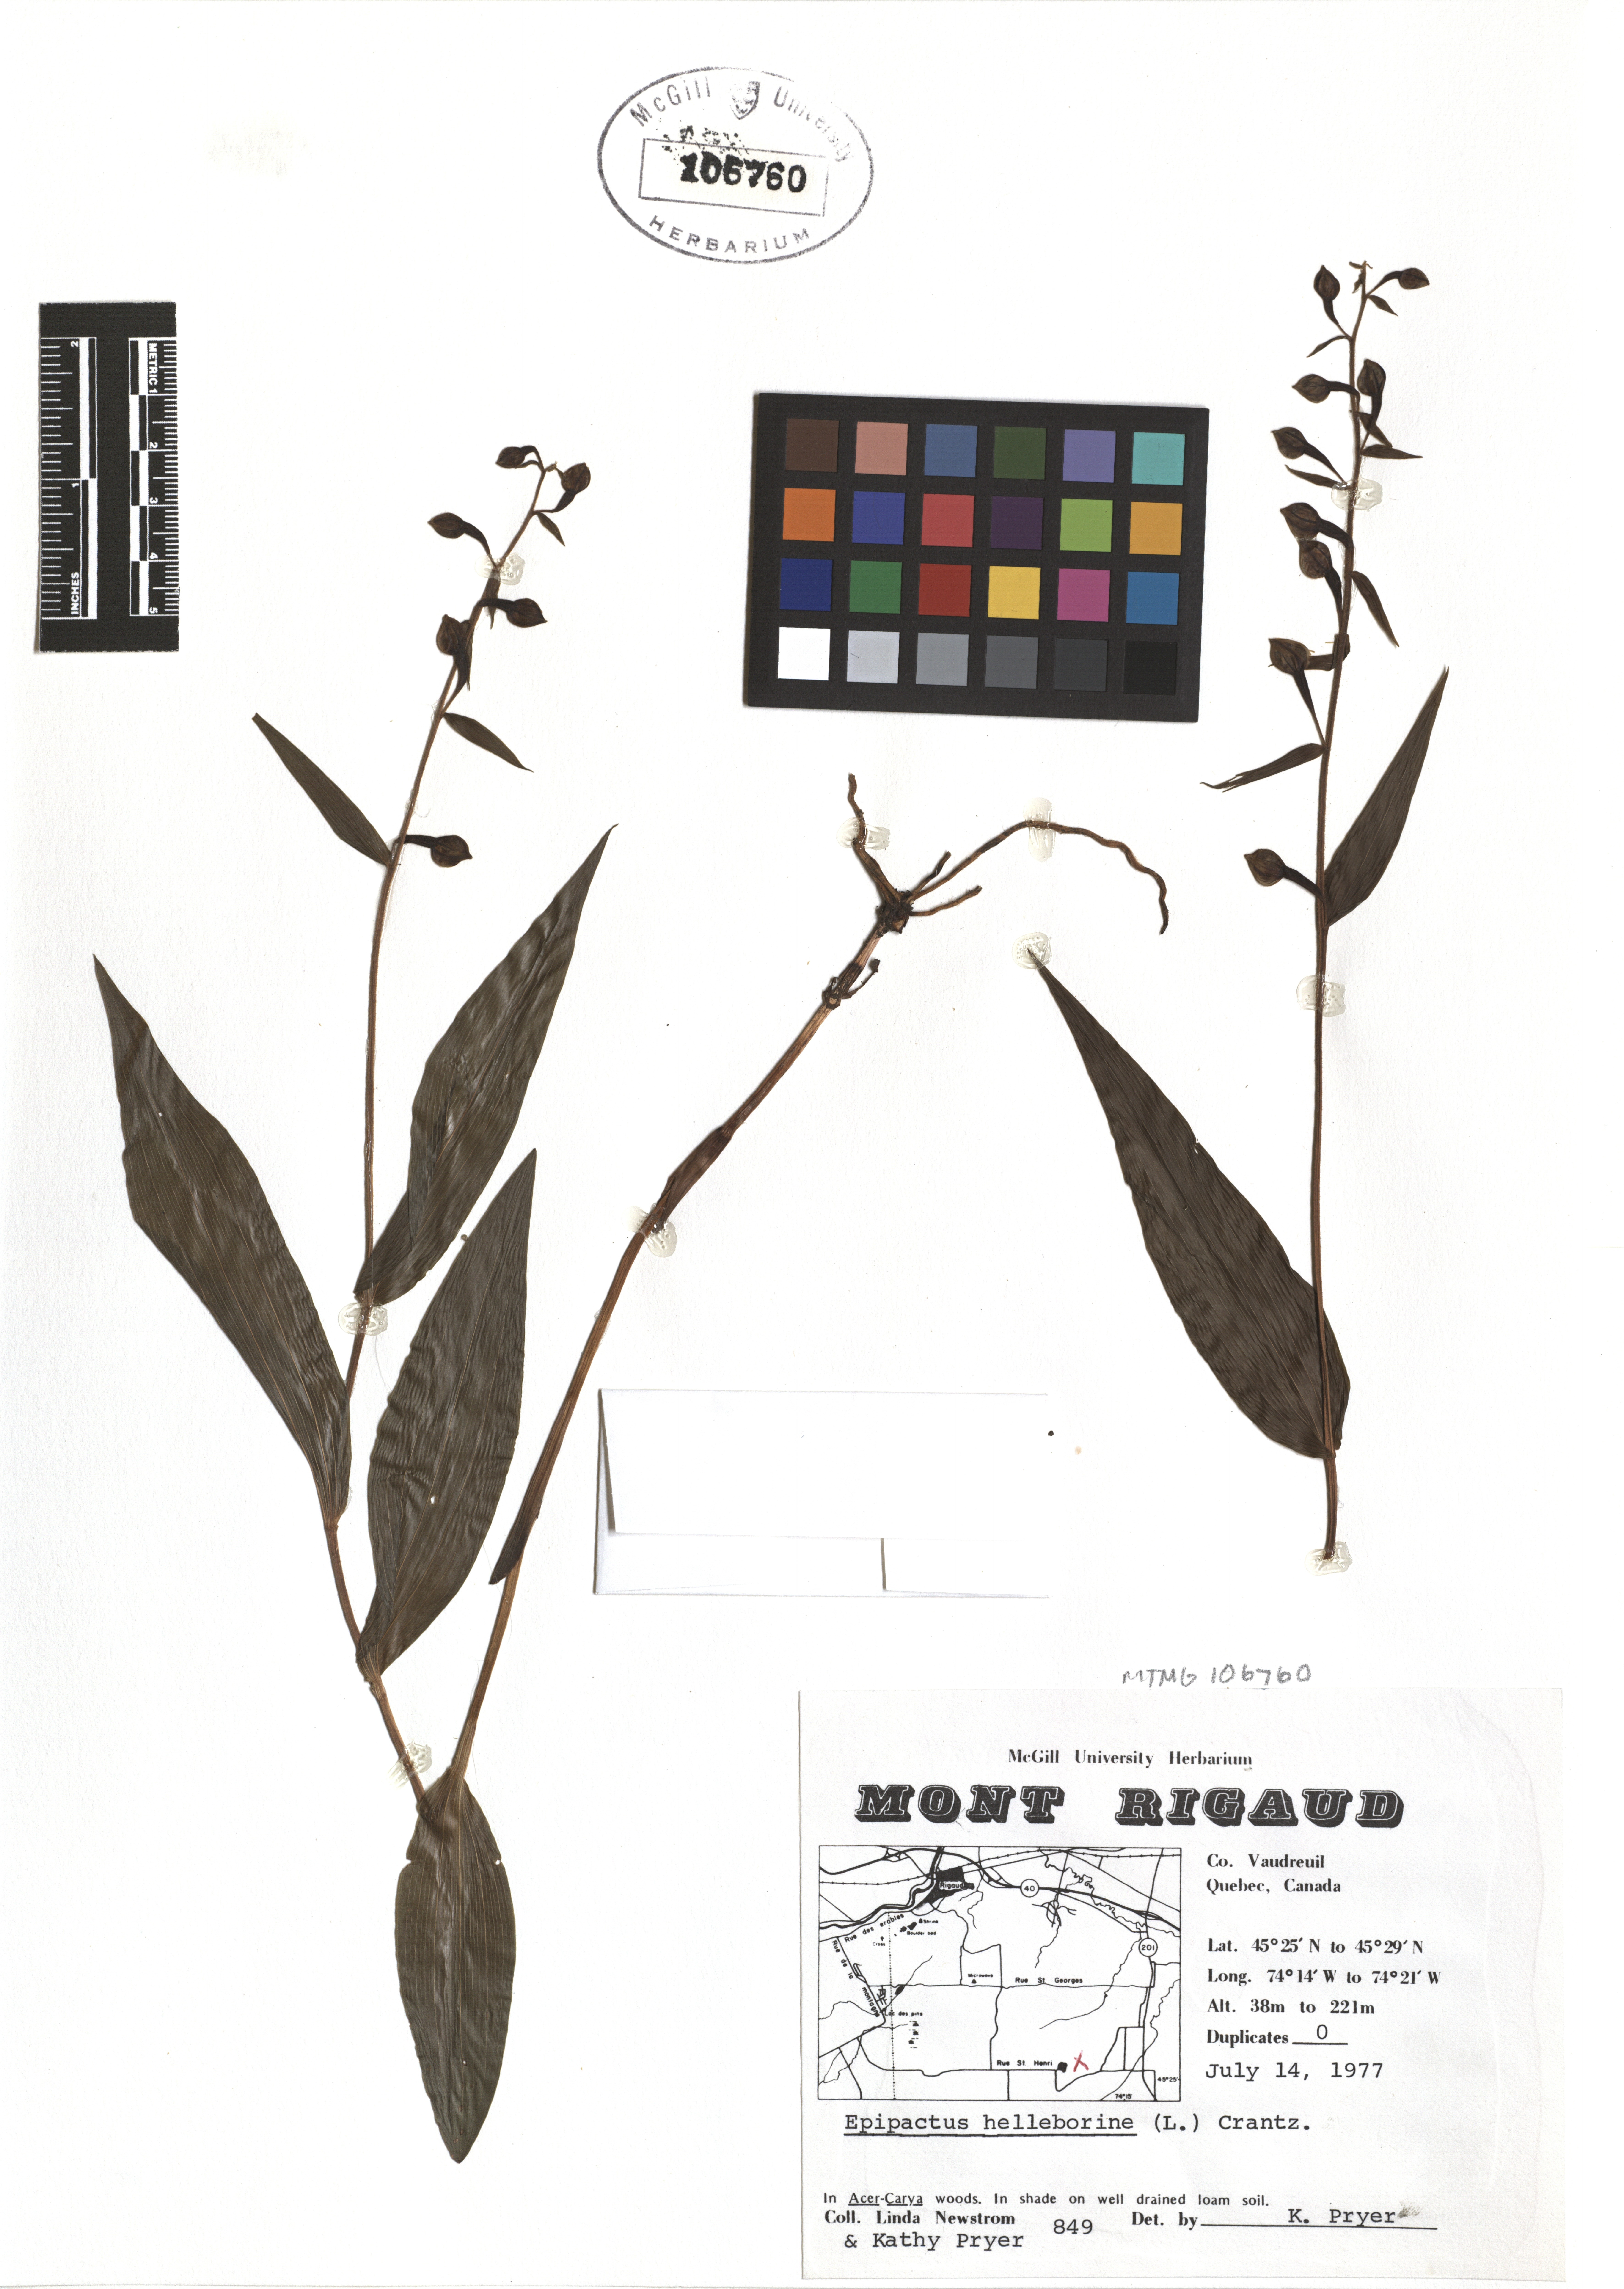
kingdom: Plantae
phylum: Tracheophyta
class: Liliopsida
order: Asparagales
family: Orchidaceae
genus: Epipactis
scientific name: Epipactis helleborine
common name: Broad-leaved helleborine
